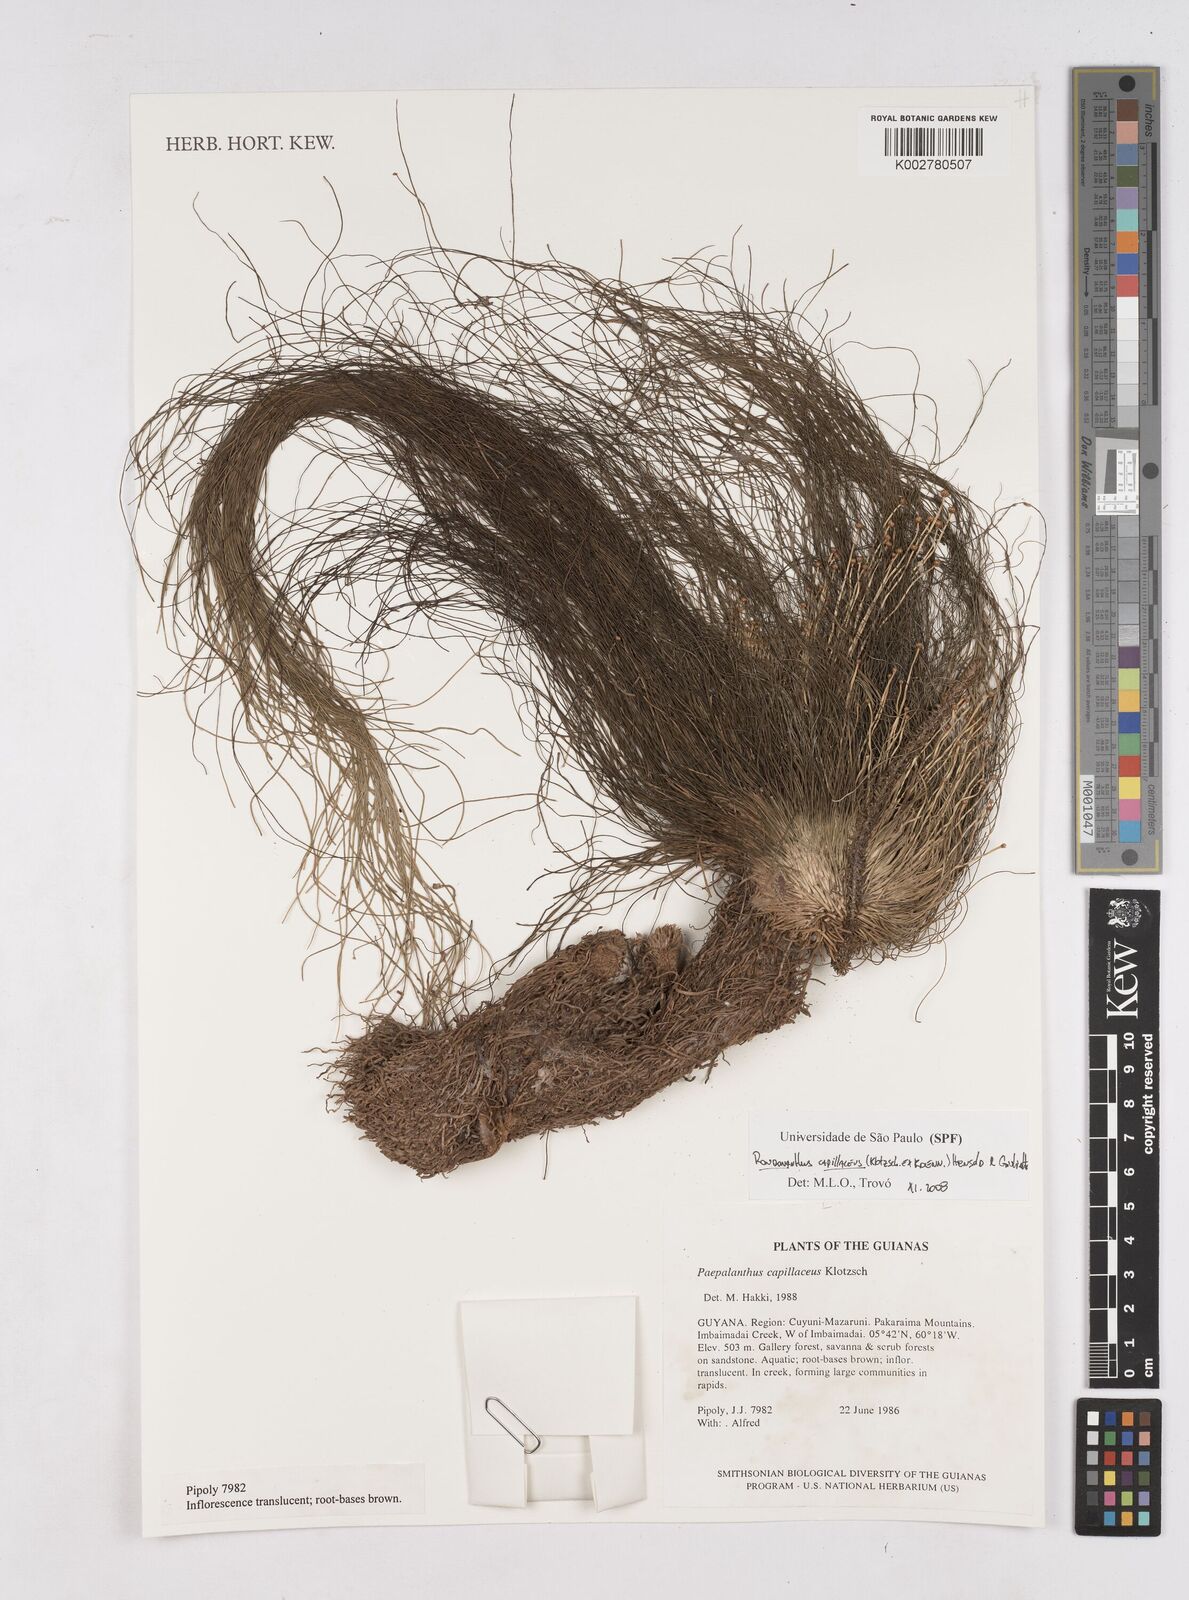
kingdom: Plantae
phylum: Tracheophyta
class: Liliopsida
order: Poales
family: Eriocaulaceae
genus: Rondonanthus
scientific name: Rondonanthus capillaceus
